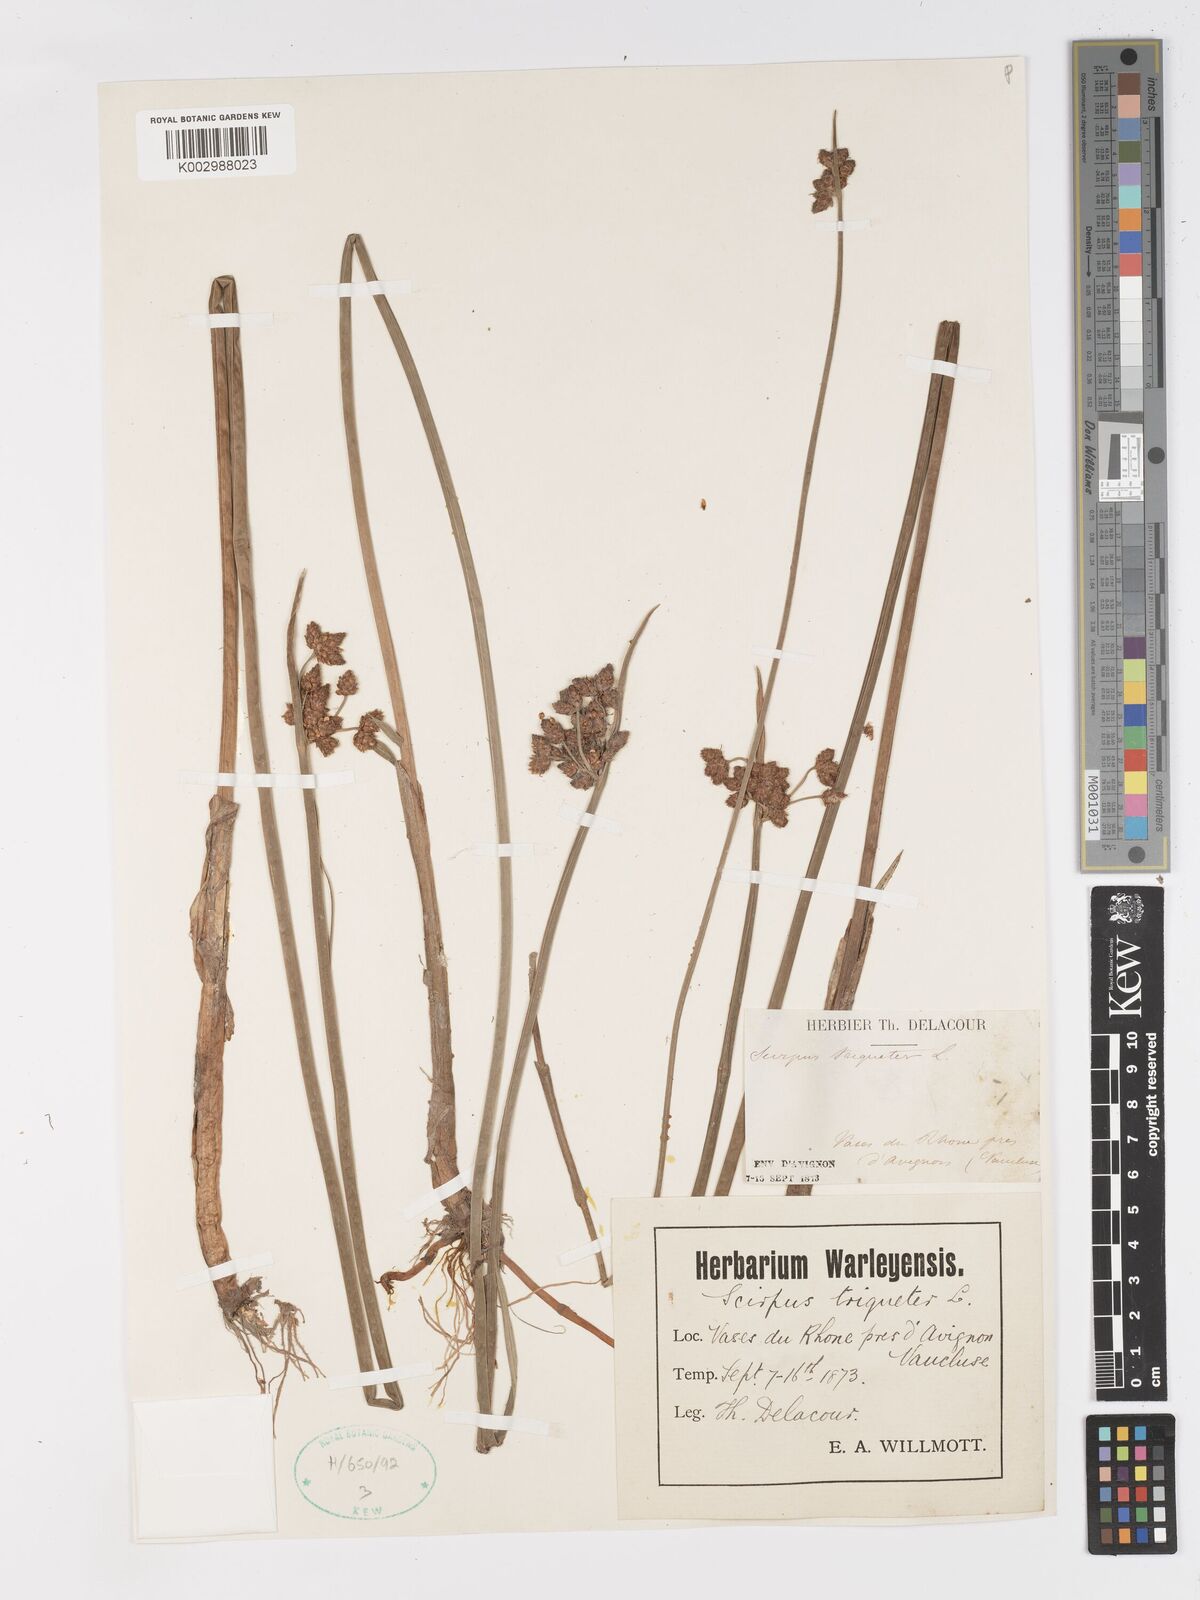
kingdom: Plantae
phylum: Tracheophyta
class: Liliopsida
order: Poales
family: Cyperaceae
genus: Schoenoplectus
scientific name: Schoenoplectus triqueter
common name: Triangular club-rush
